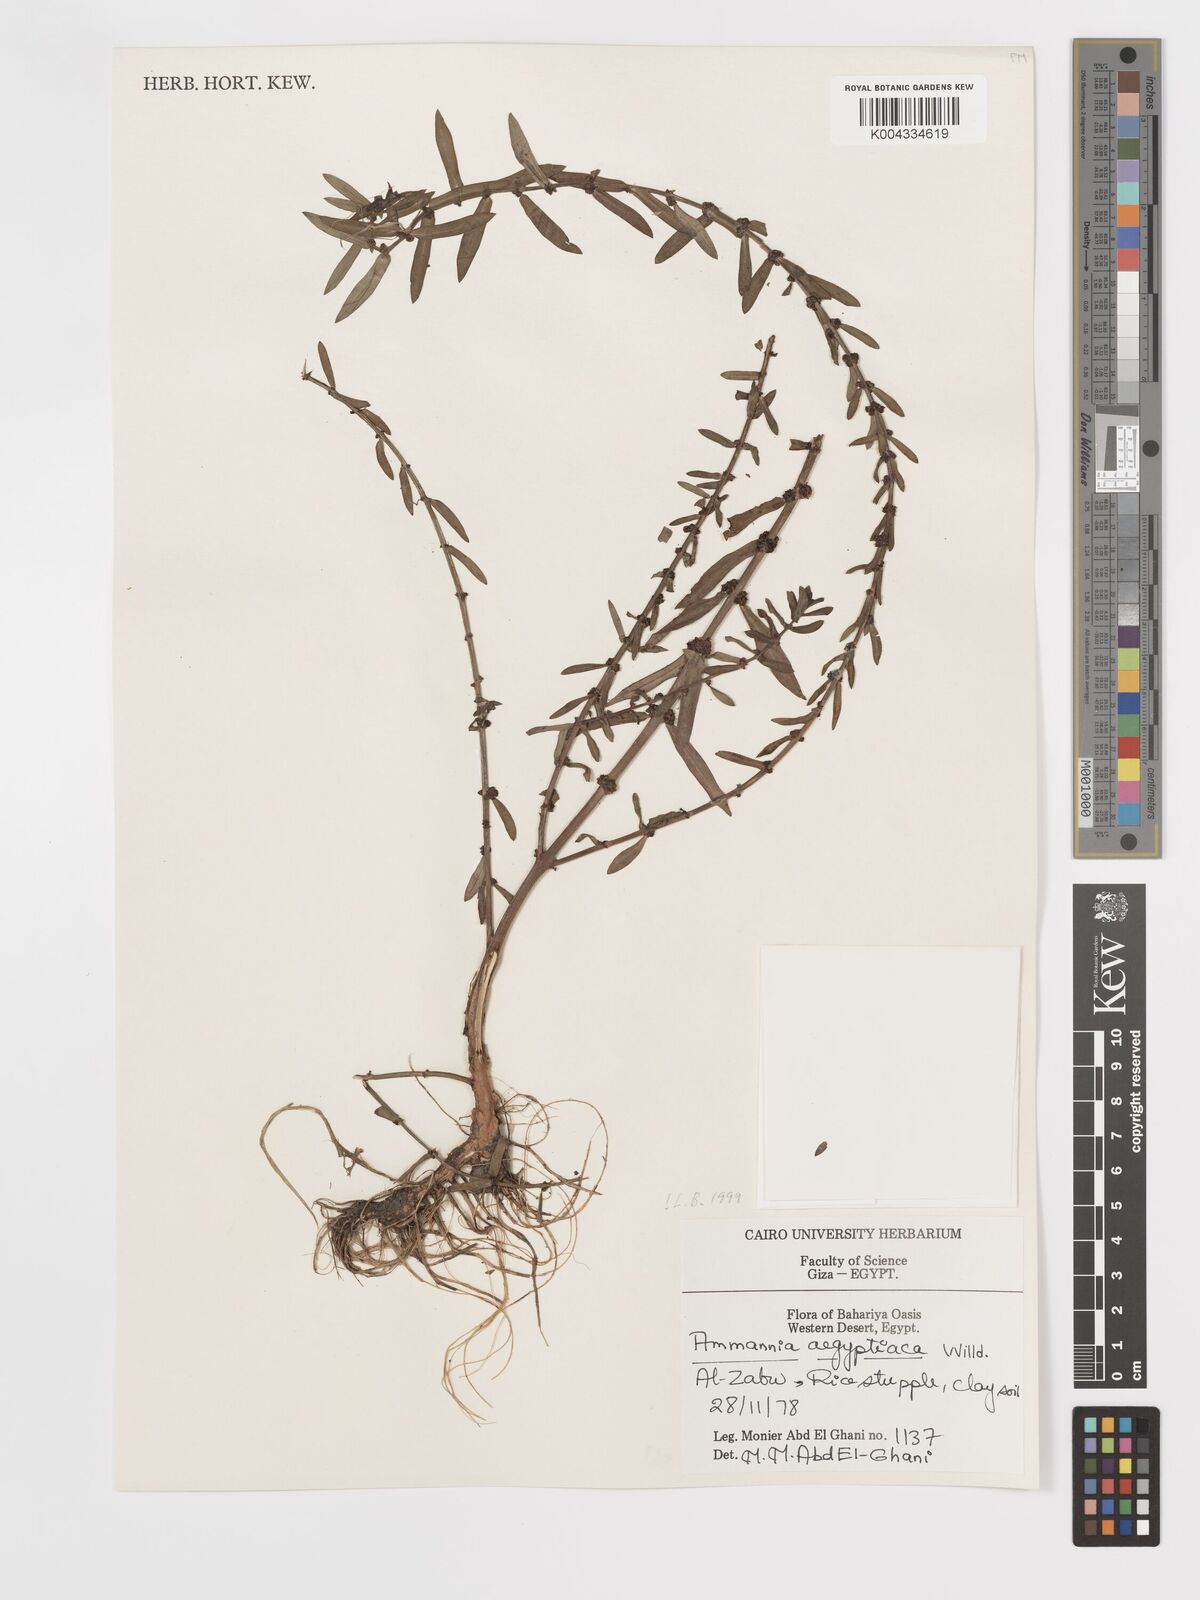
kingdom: Plantae
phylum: Tracheophyta
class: Magnoliopsida
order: Myrtales
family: Lythraceae
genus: Ammannia
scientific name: Ammannia
